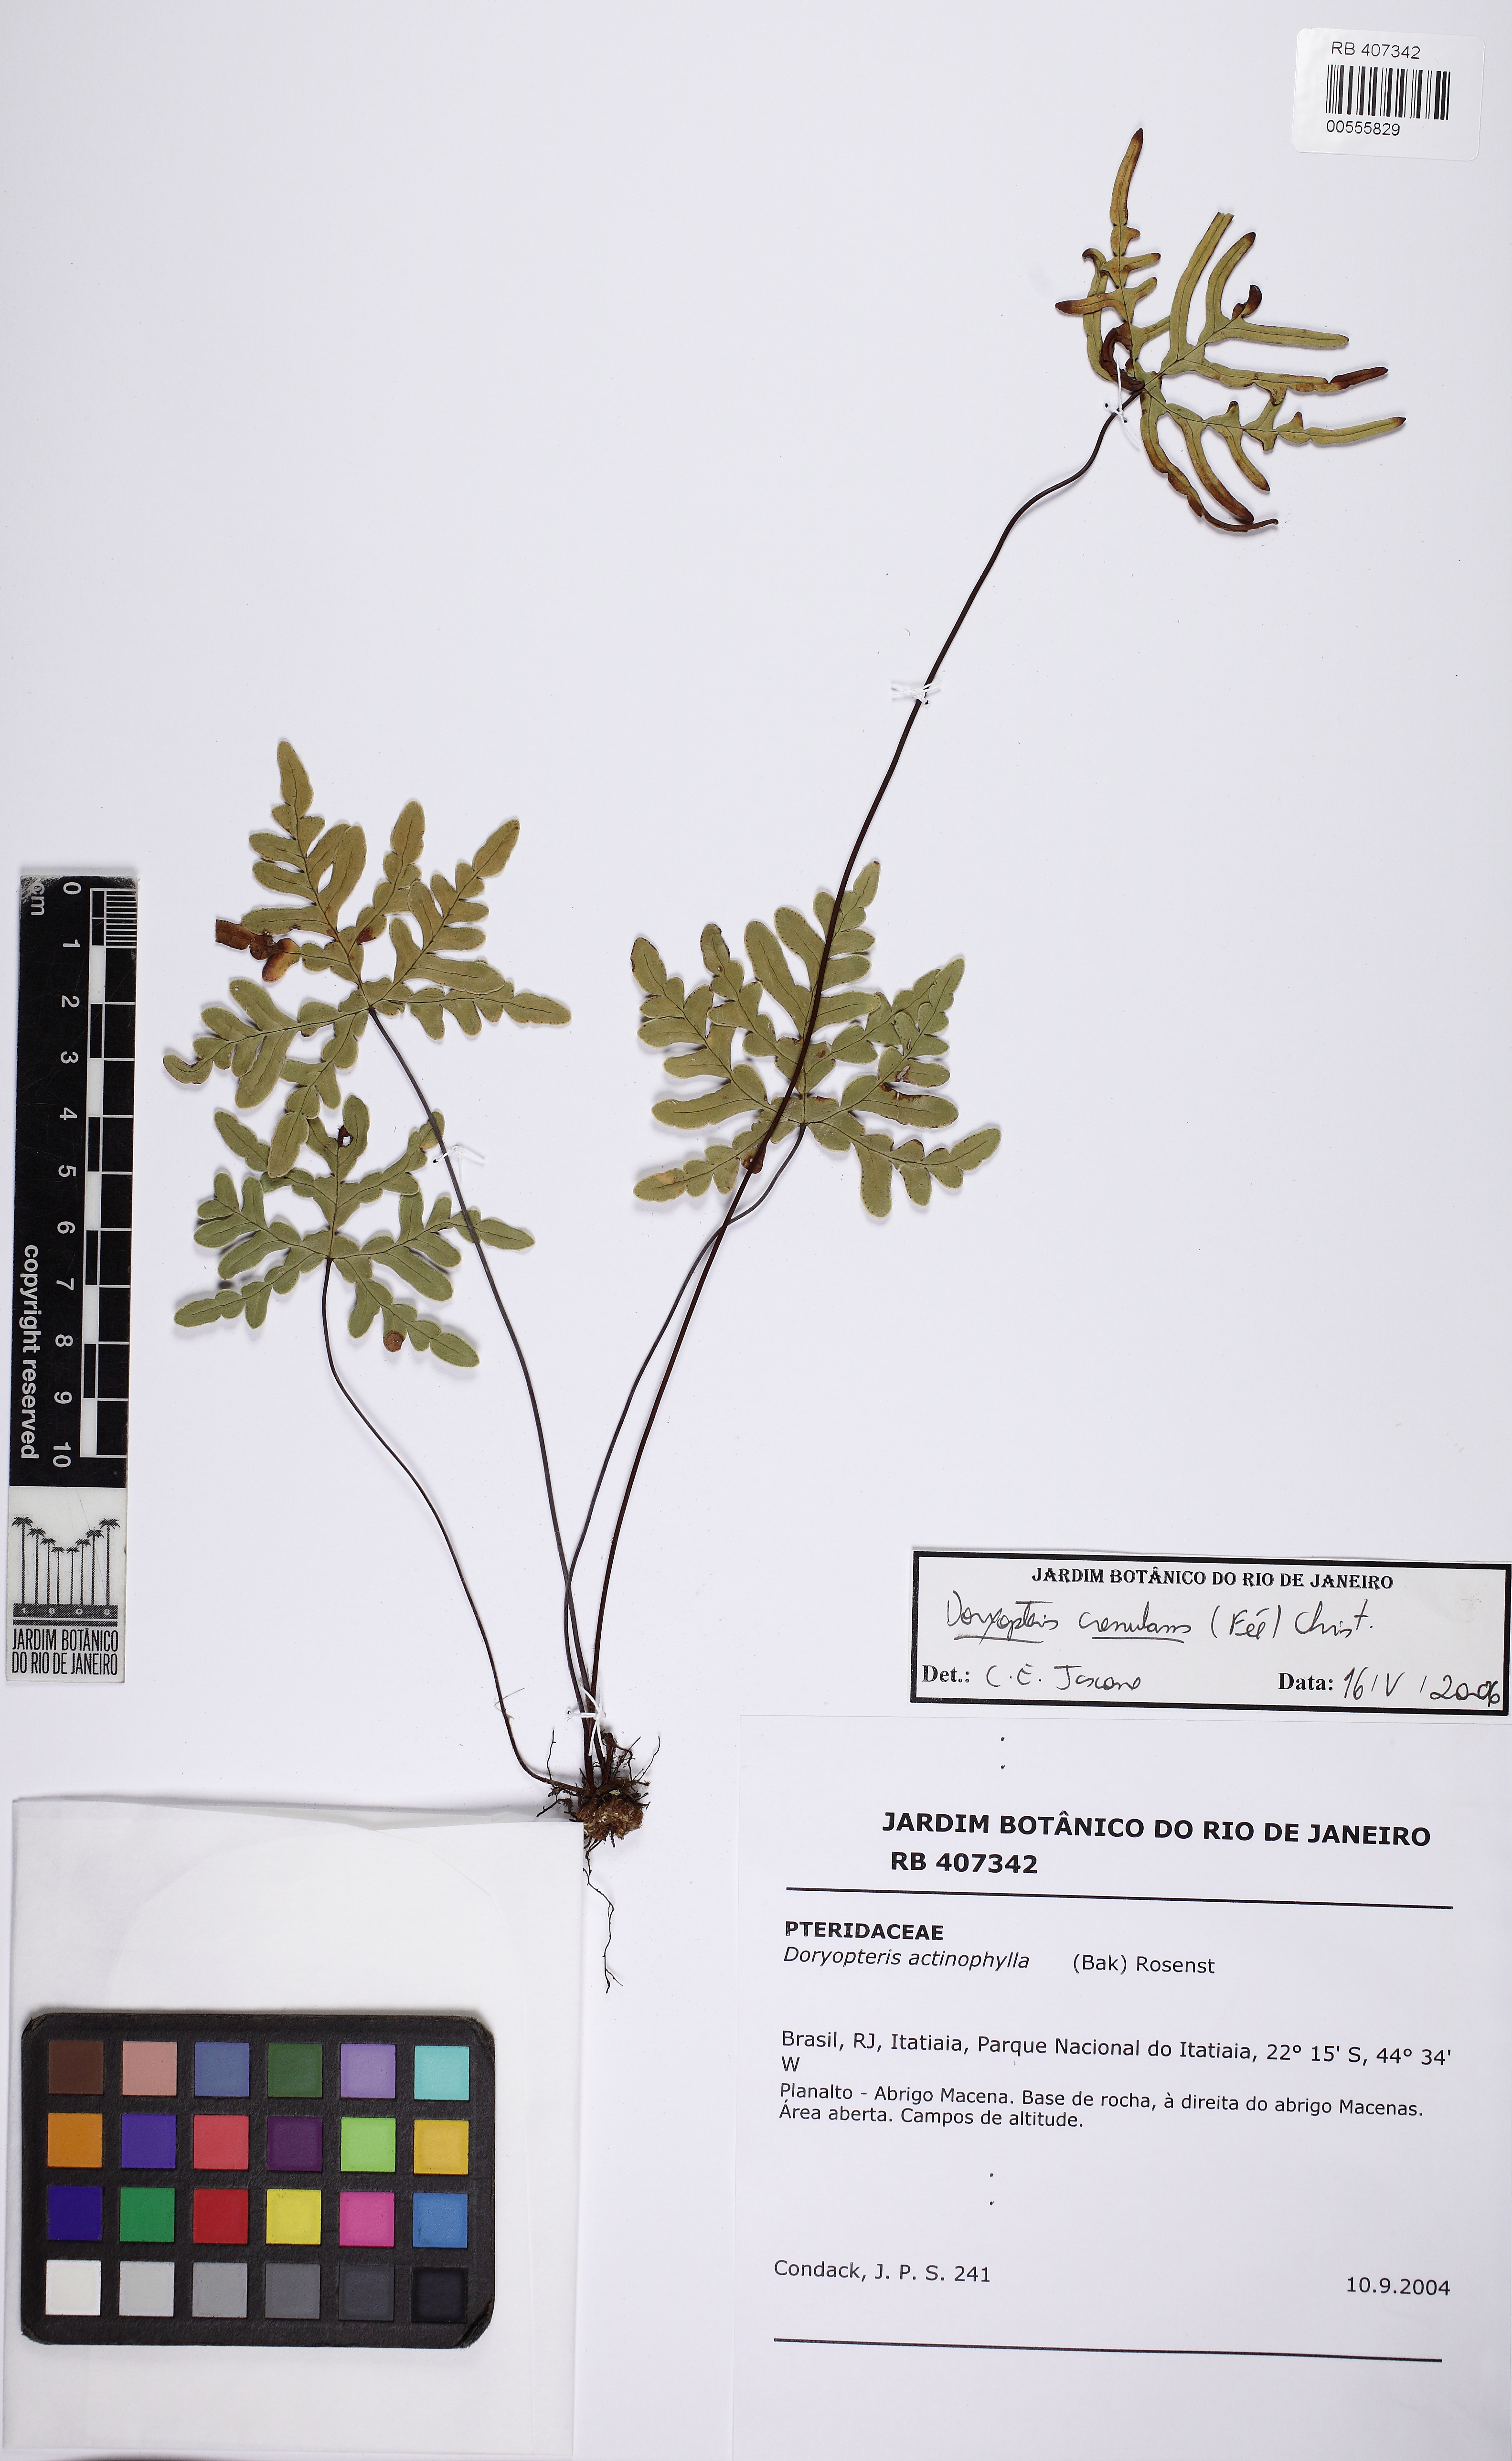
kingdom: Plantae
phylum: Tracheophyta
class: Polypodiopsida
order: Polypodiales
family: Pteridaceae
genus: Lytoneuron
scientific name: Lytoneuron crenulans
